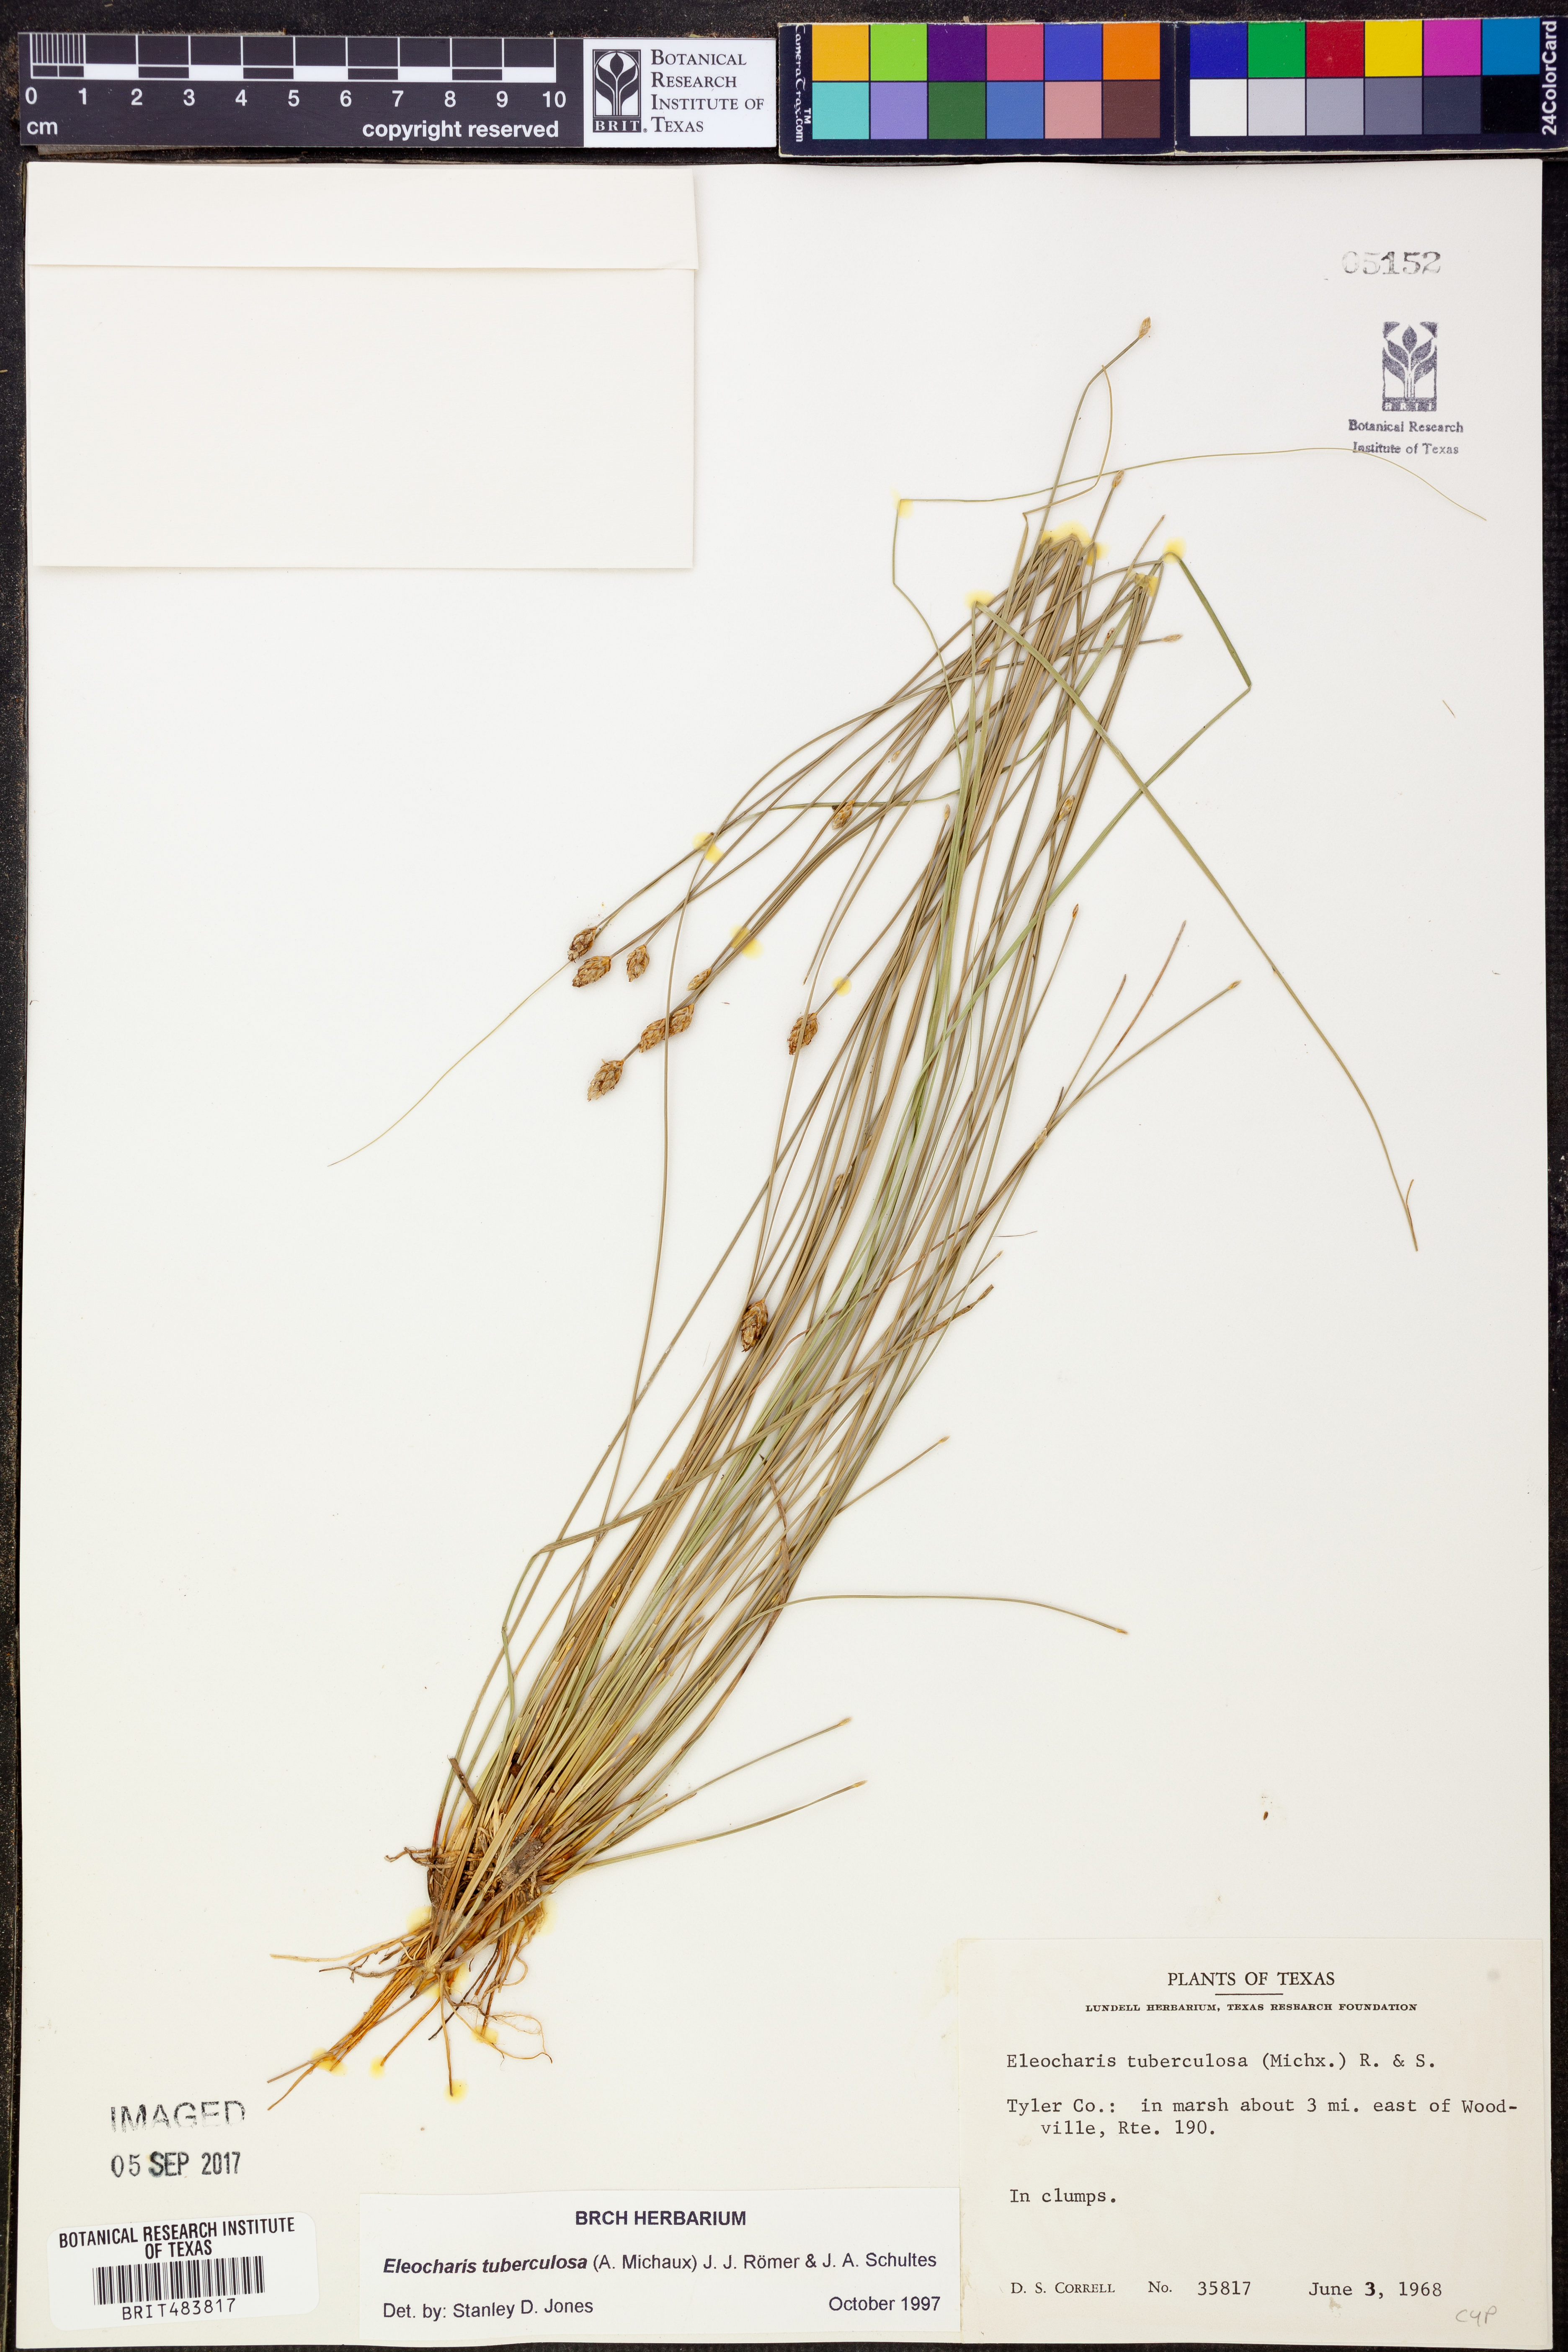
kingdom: Plantae
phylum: Tracheophyta
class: Liliopsida
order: Poales
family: Cyperaceae
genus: Eleocharis
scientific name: Eleocharis tuberculosa
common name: Cone-cup spikerush
